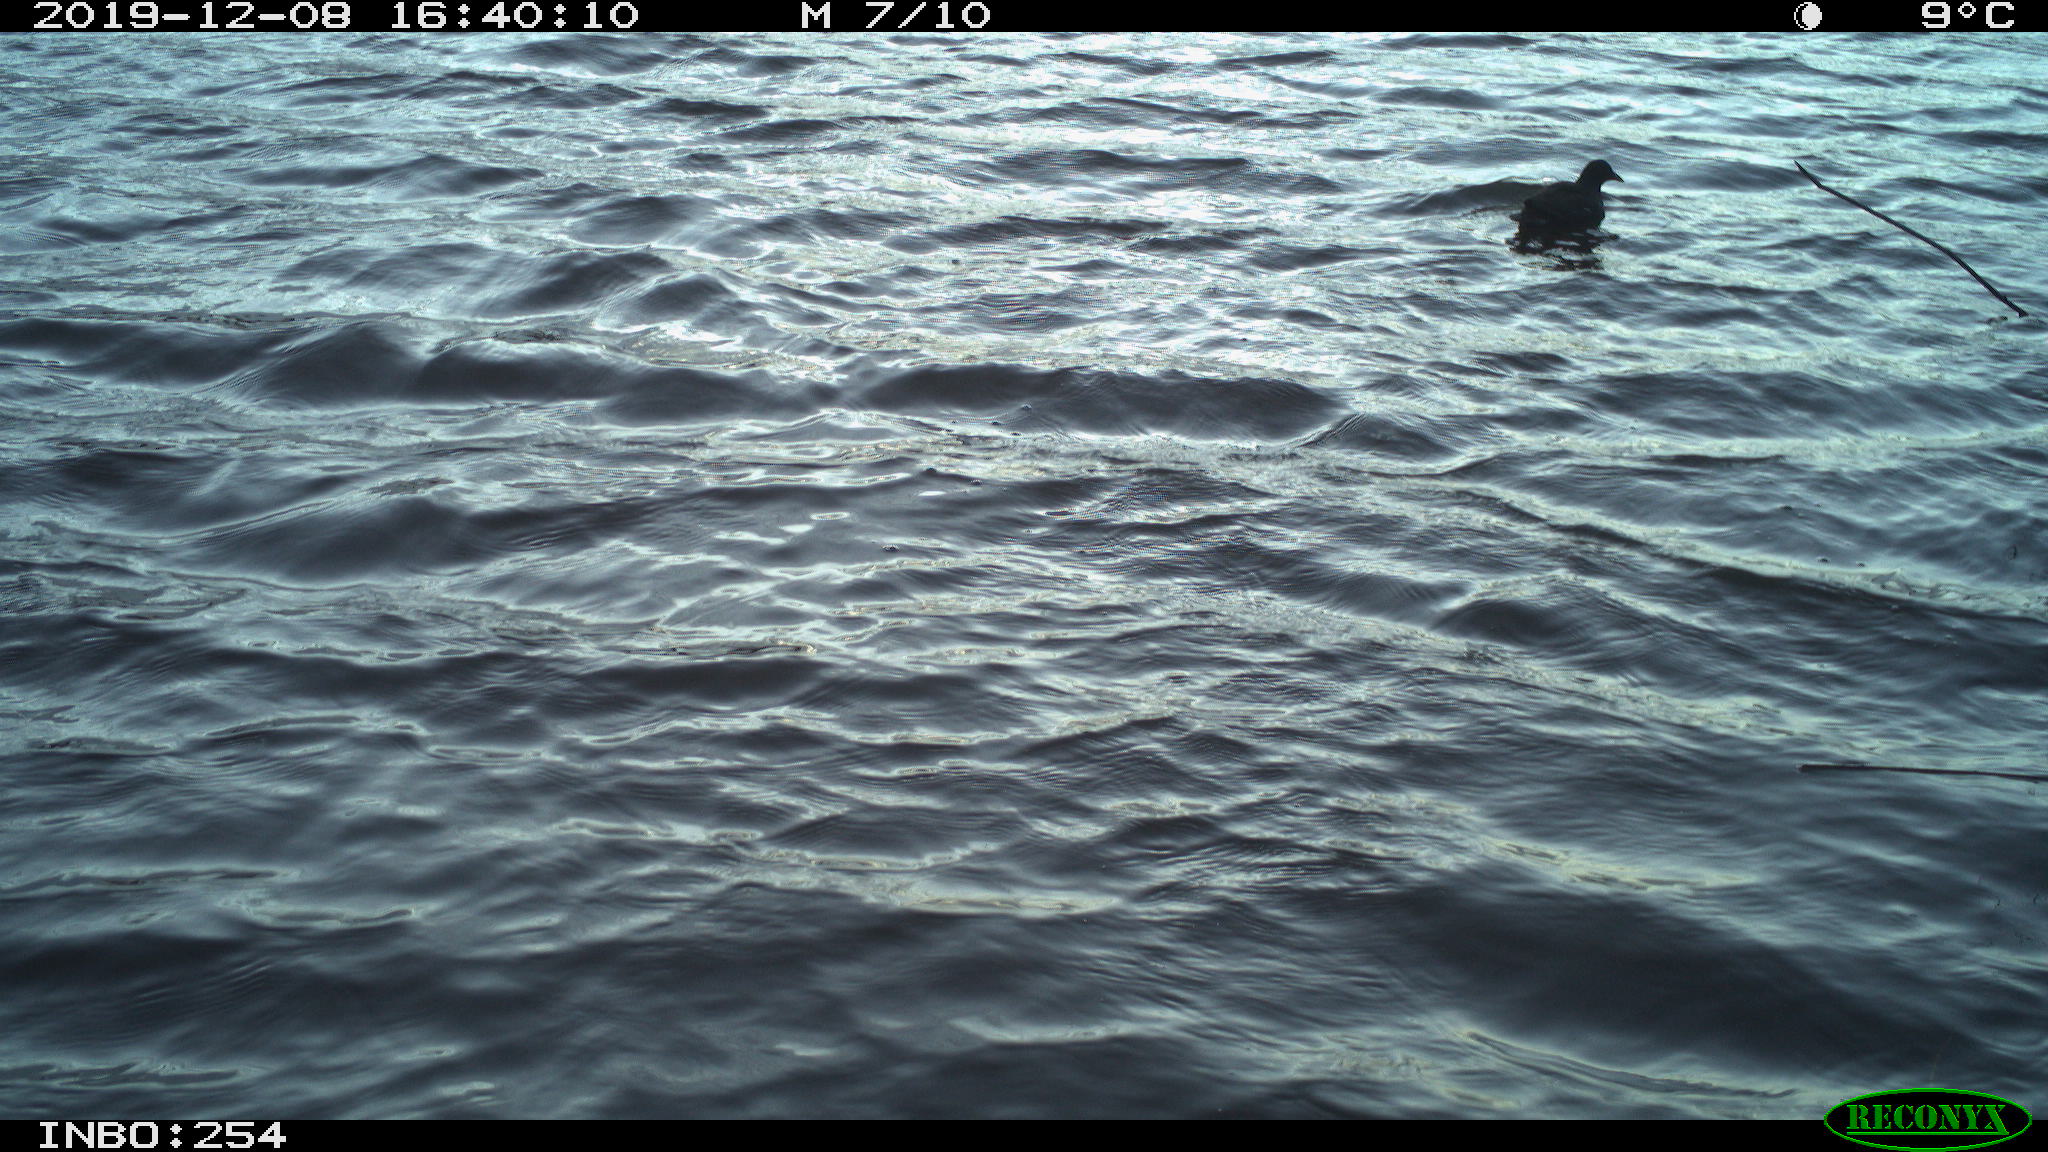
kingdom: Animalia
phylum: Chordata
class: Aves
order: Gruiformes
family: Rallidae
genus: Gallinula
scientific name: Gallinula chloropus
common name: Common moorhen
